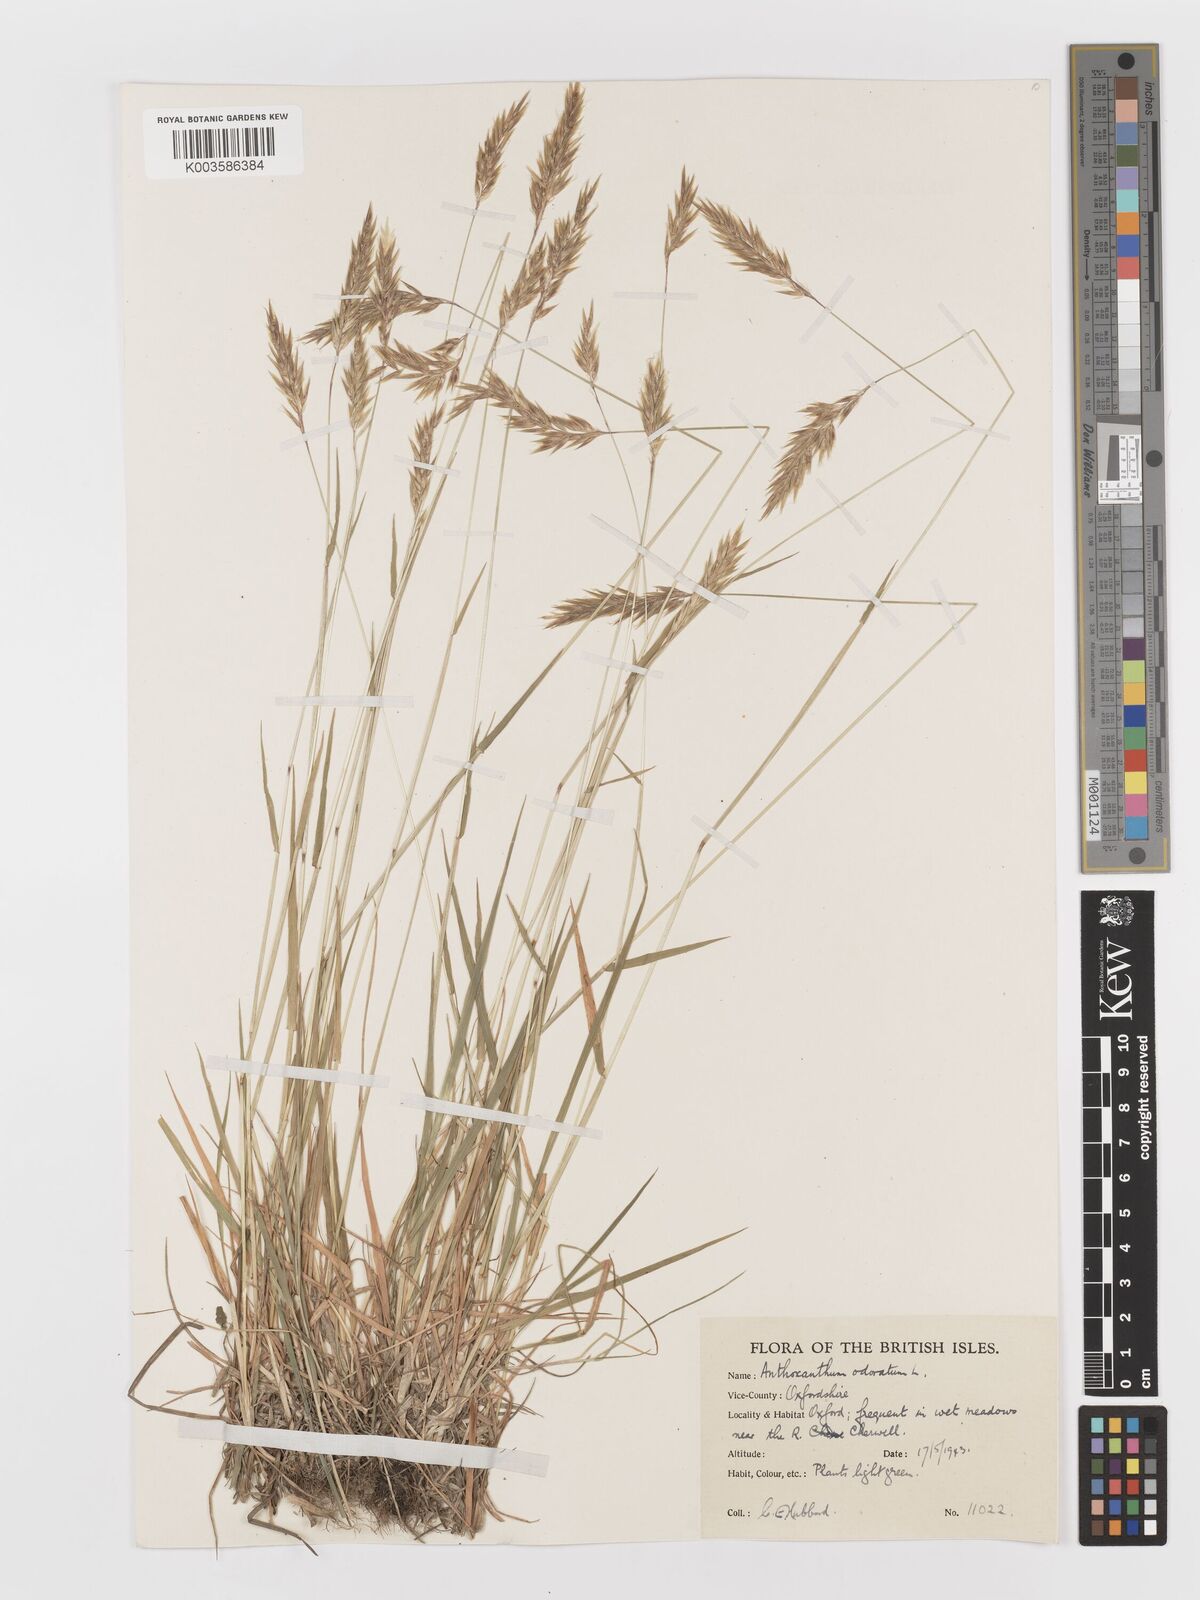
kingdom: Plantae
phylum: Tracheophyta
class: Liliopsida
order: Poales
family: Poaceae
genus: Anthoxanthum
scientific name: Anthoxanthum odoratum
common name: Sweet vernalgrass
